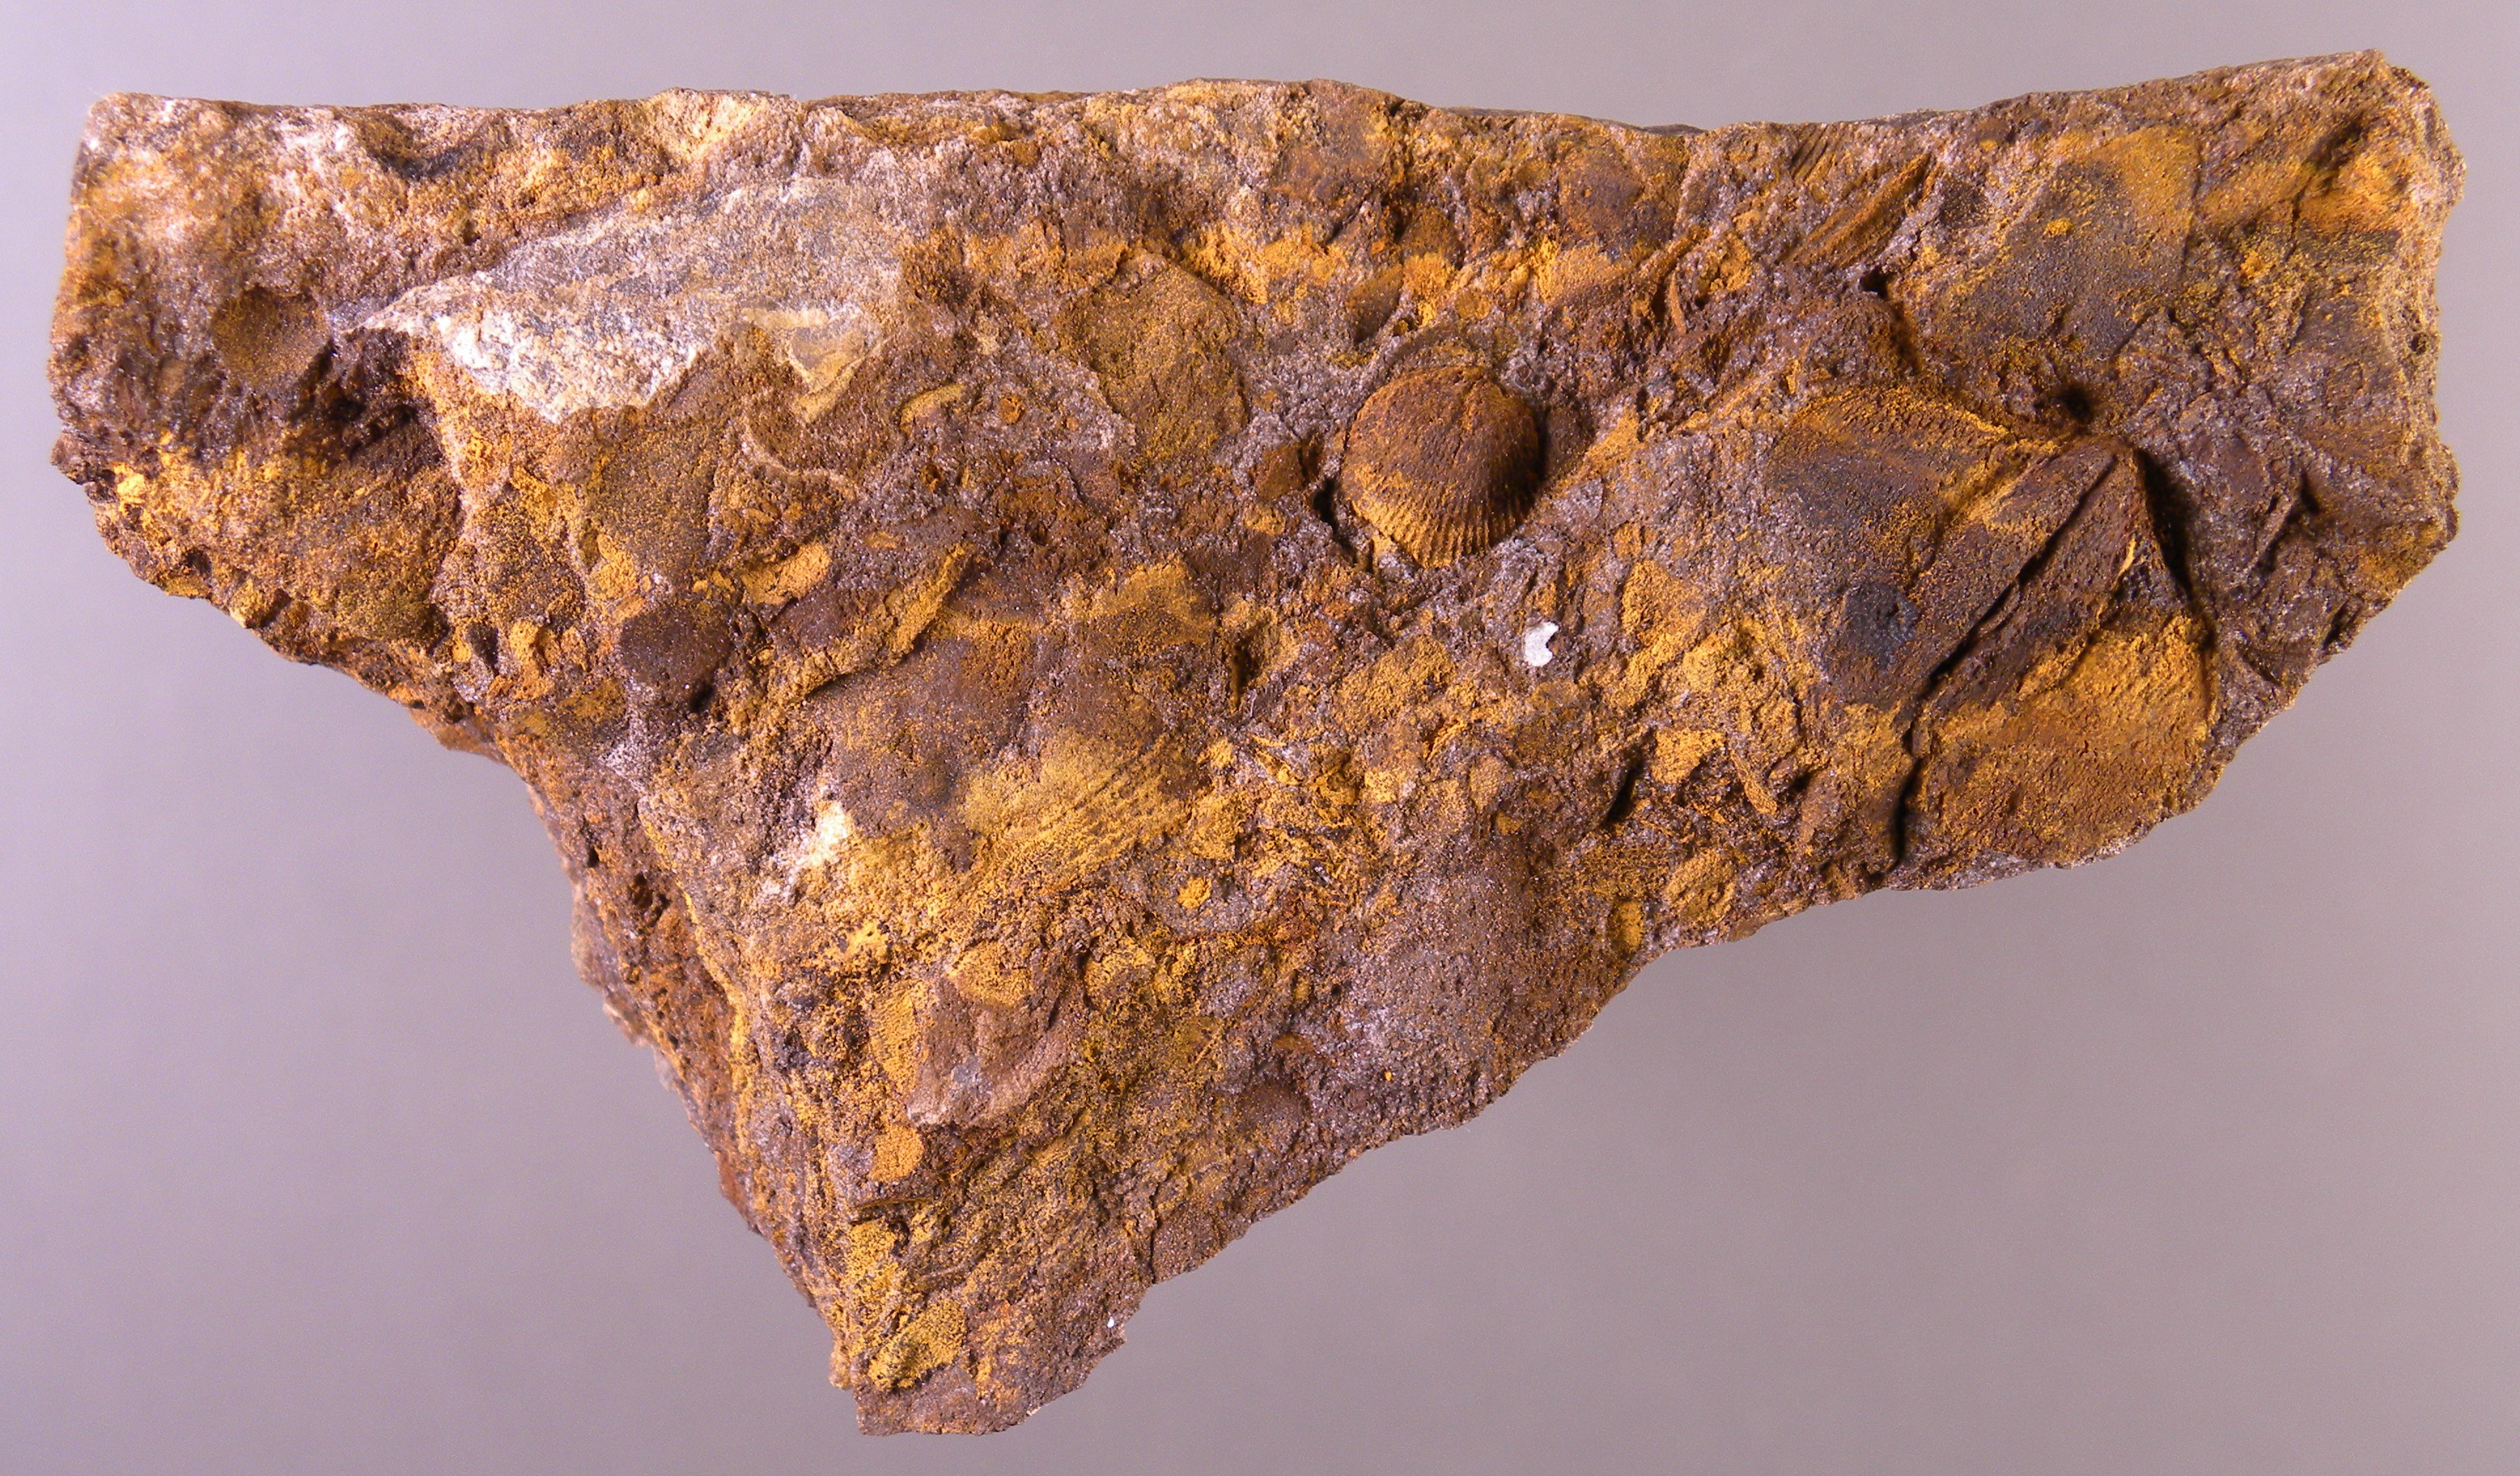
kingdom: Animalia
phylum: Brachiopoda
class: Rhynchonellata
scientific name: Rhynchonellata
